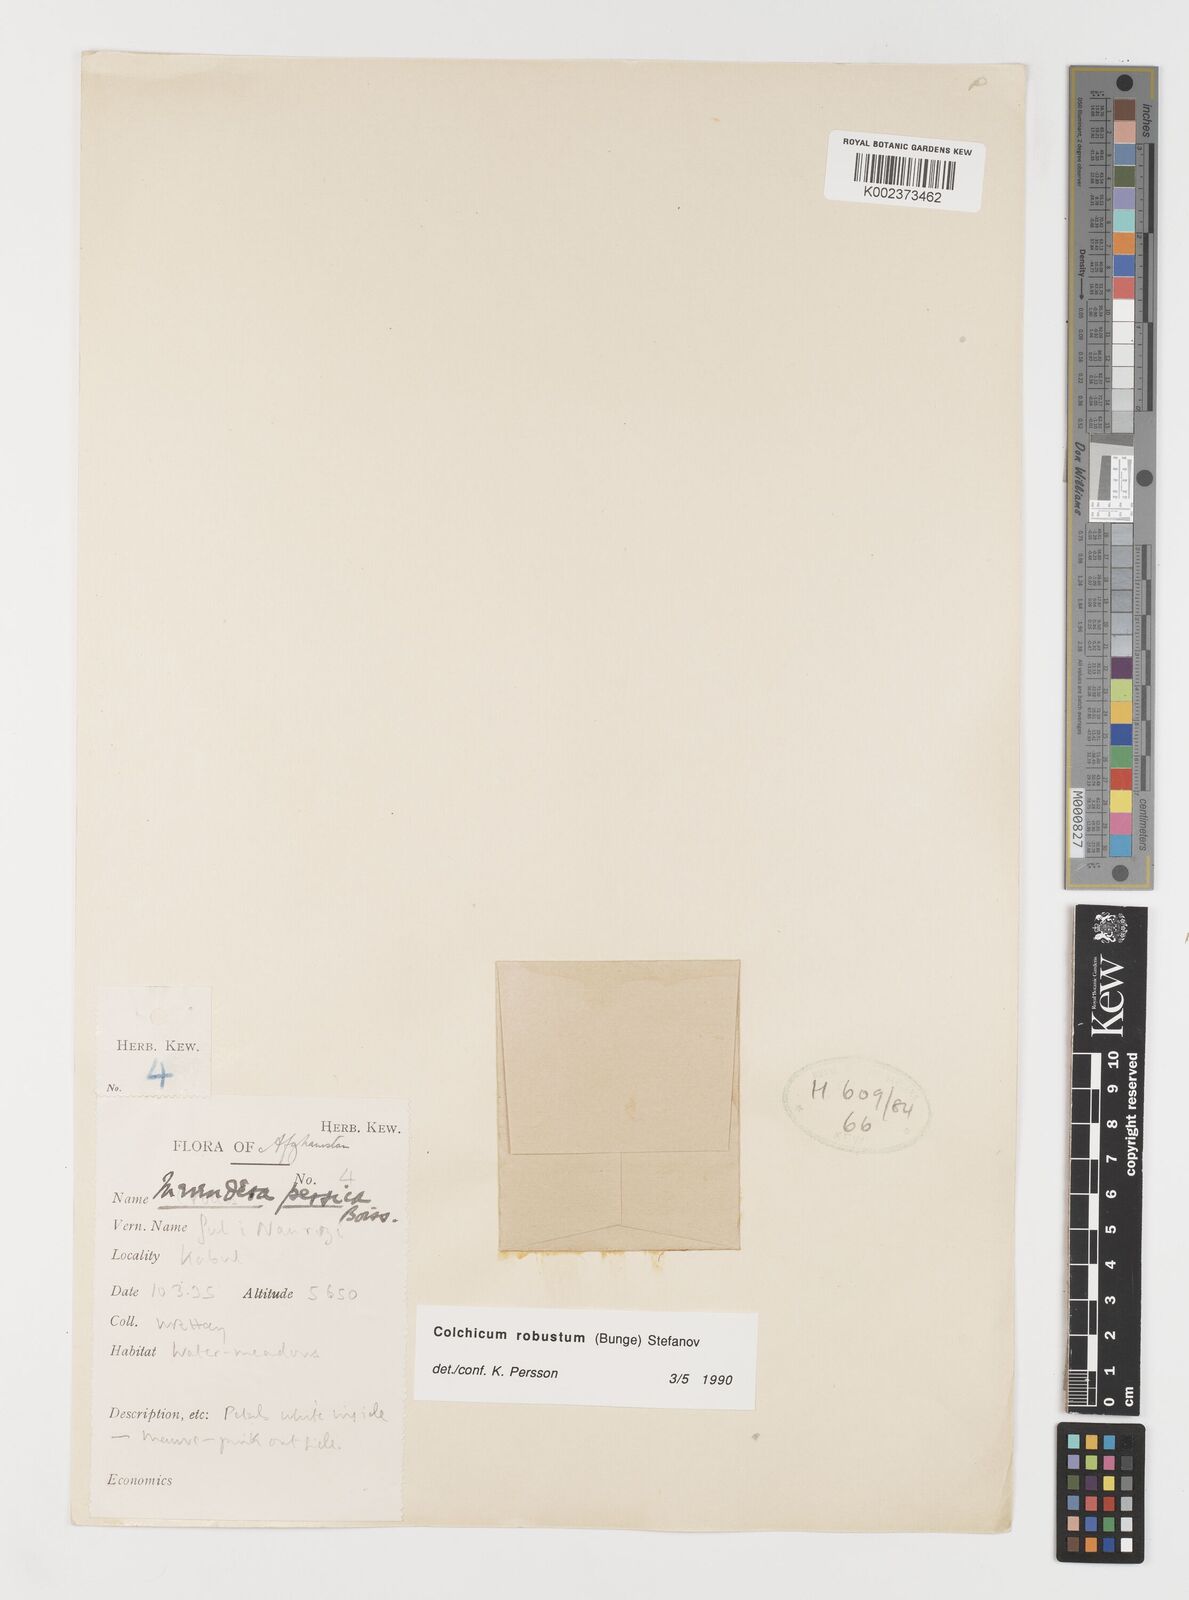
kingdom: Plantae
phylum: Tracheophyta
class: Liliopsida
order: Liliales
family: Colchicaceae
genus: Colchicum
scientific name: Colchicum robustum
